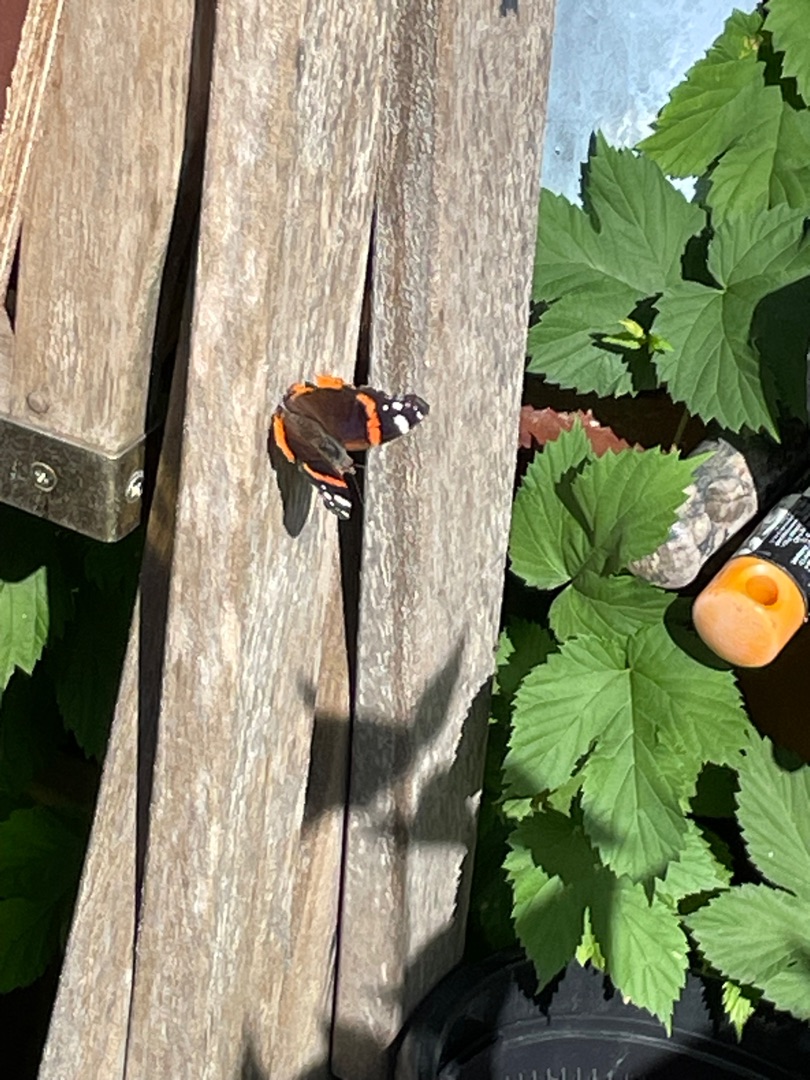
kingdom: Animalia
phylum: Arthropoda
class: Insecta
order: Lepidoptera
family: Nymphalidae
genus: Vanessa
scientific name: Vanessa atalanta
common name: Admiral
